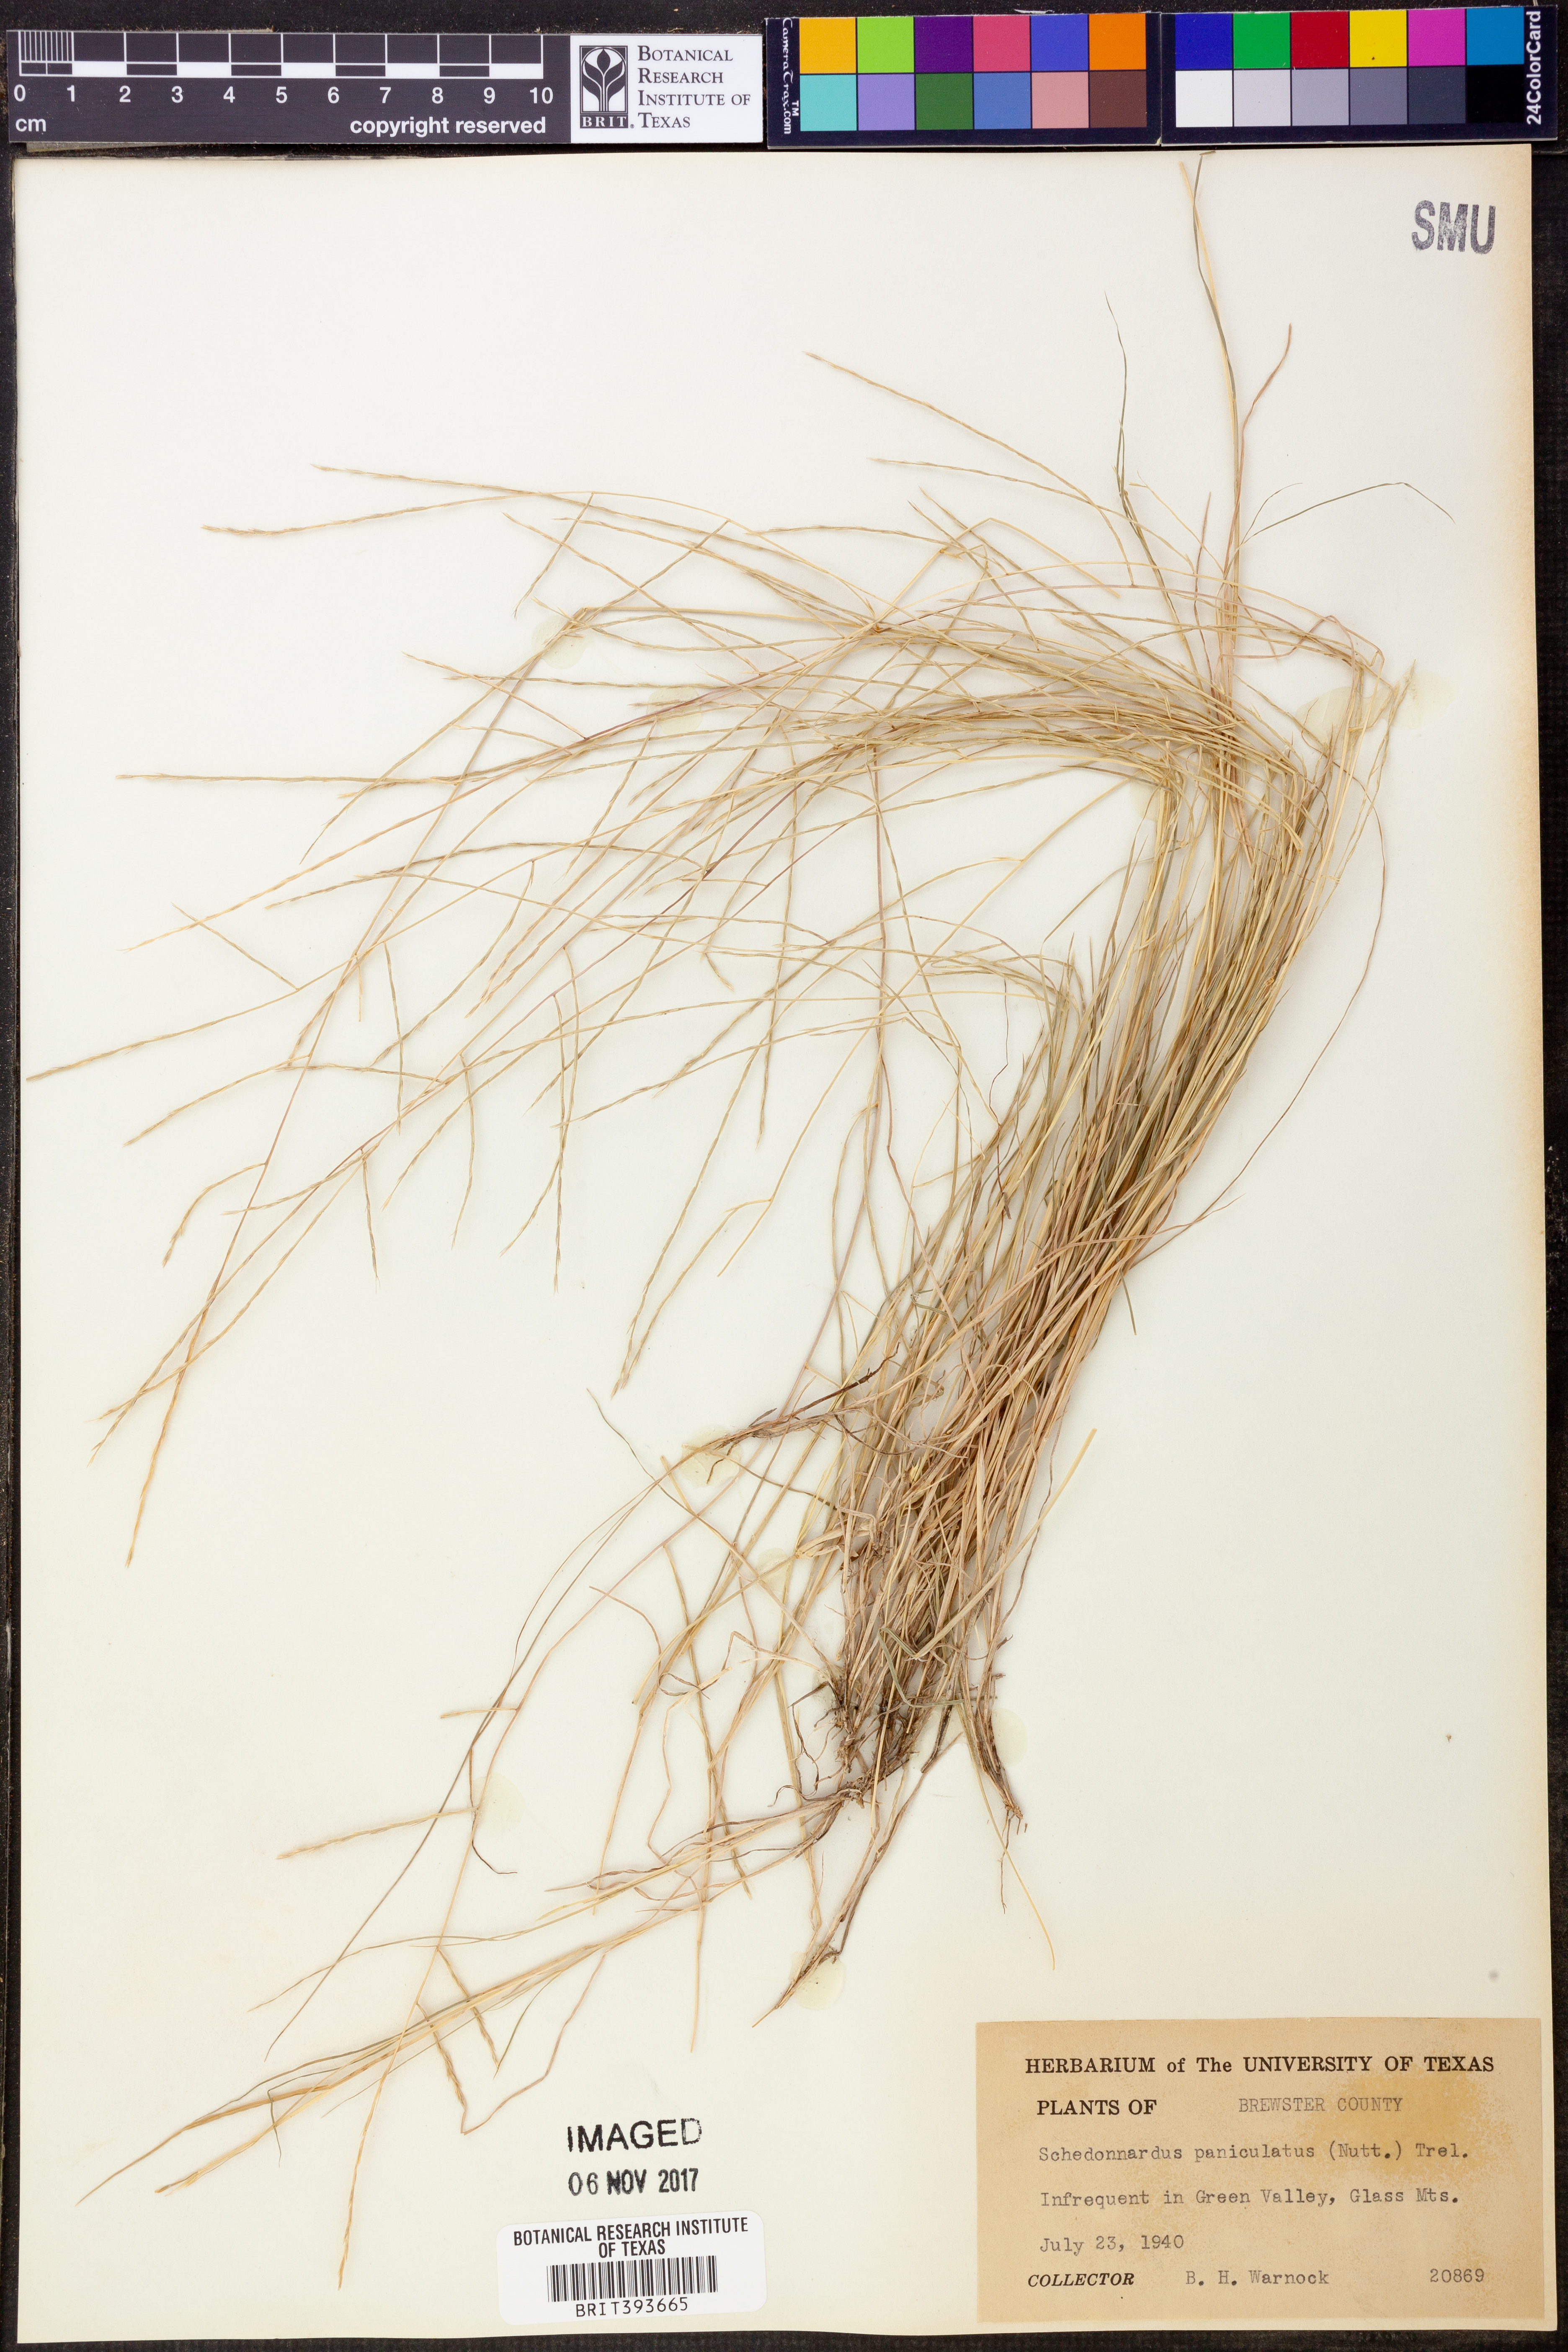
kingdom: Plantae
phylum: Tracheophyta
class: Liliopsida
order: Poales
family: Poaceae
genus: Muhlenbergia
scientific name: Muhlenbergia paniculata
